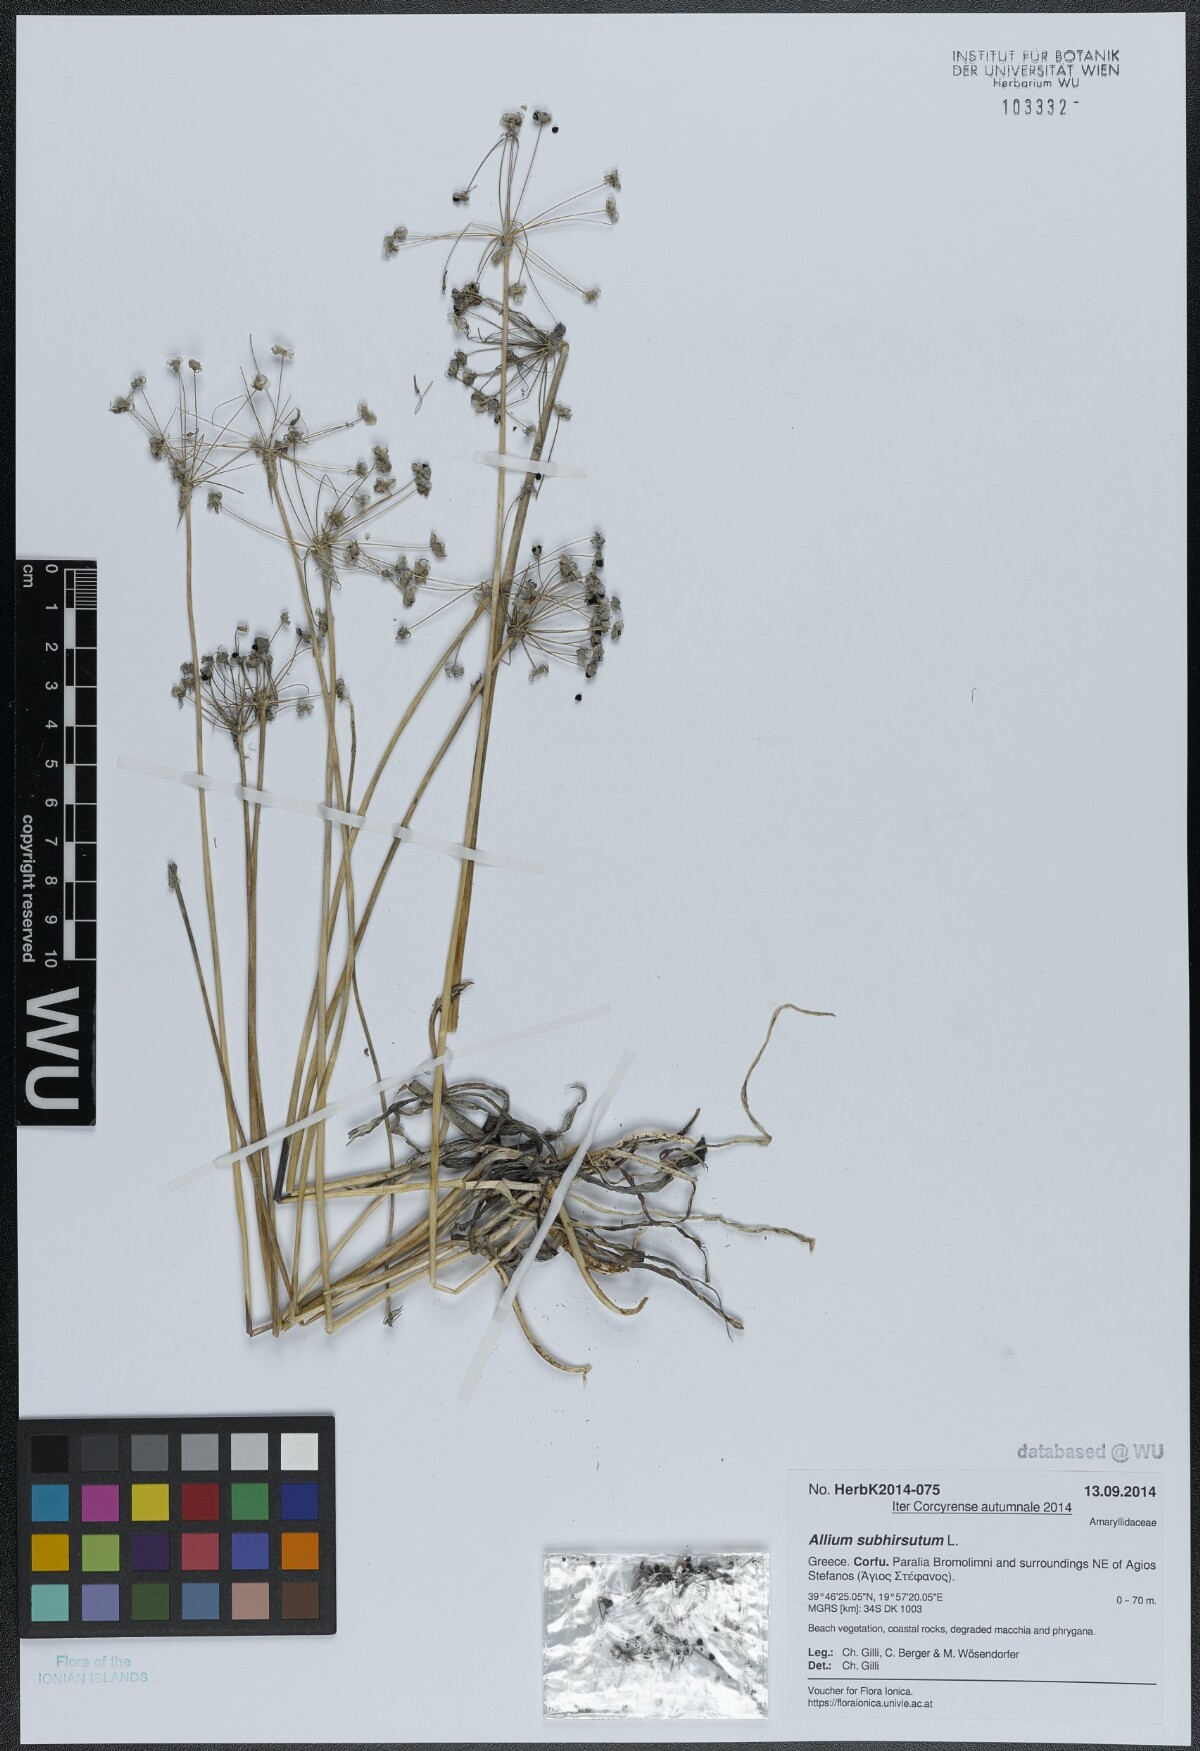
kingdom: Plantae
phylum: Tracheophyta
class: Liliopsida
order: Asparagales
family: Amaryllidaceae
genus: Allium
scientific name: Allium subhirsutum
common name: Hairy garlic
